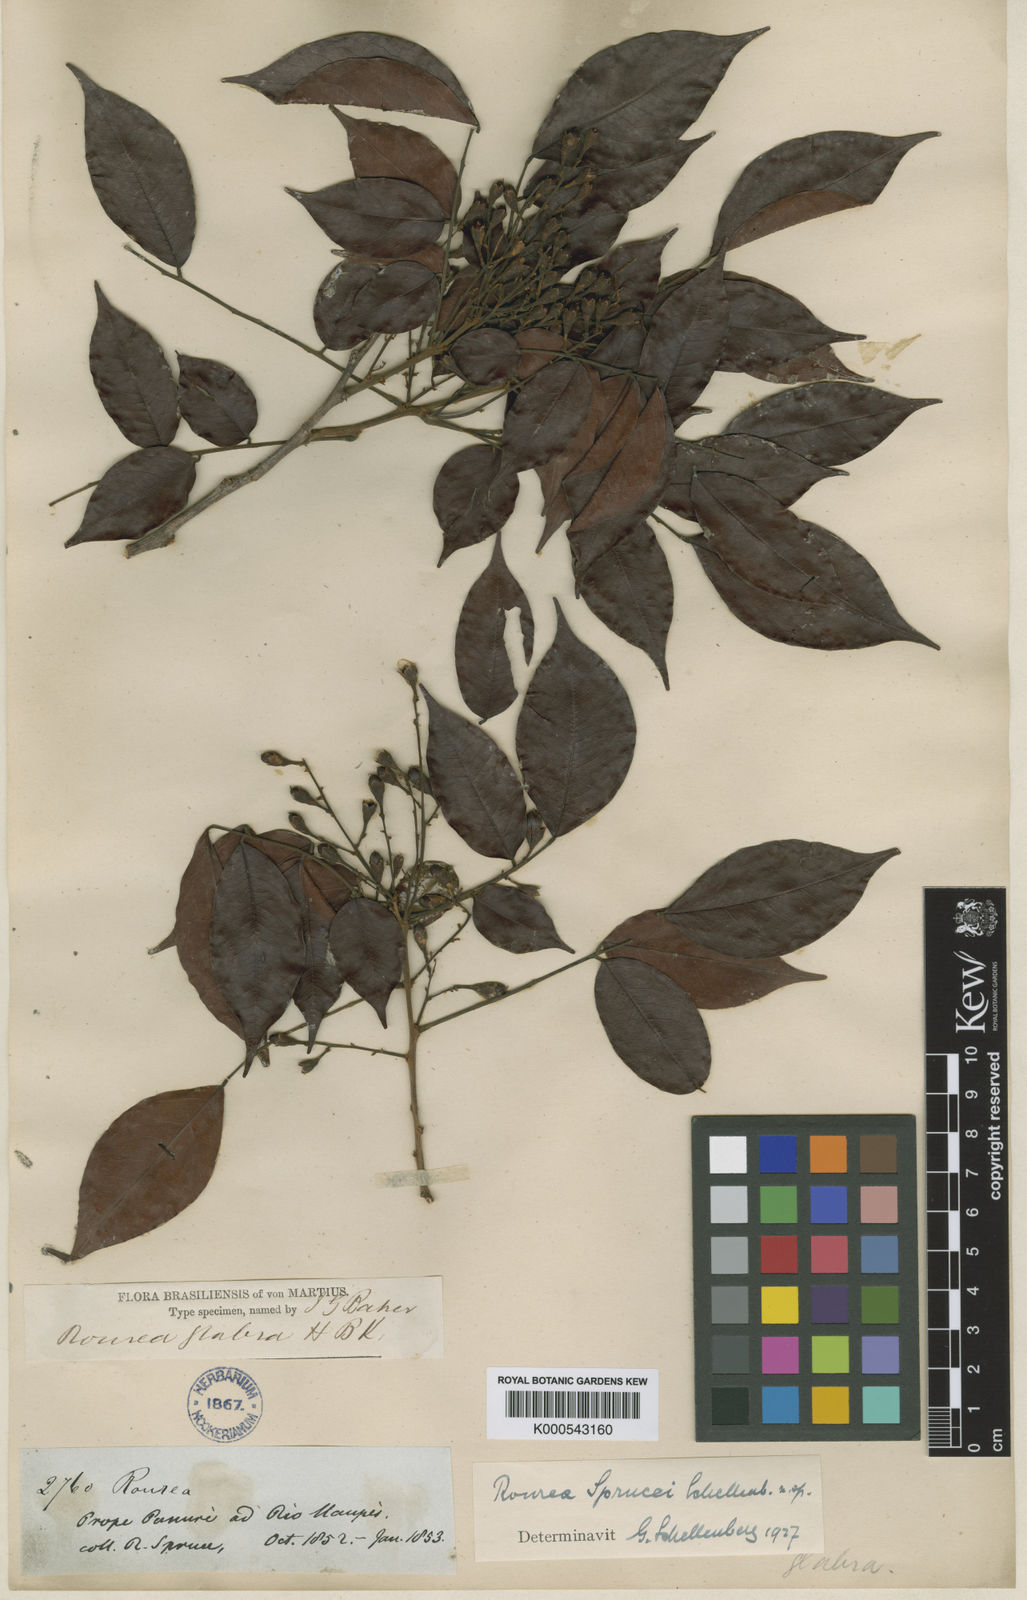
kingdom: Plantae
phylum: Tracheophyta
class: Magnoliopsida
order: Oxalidales
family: Connaraceae
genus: Rourea
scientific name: Rourea sprucei
